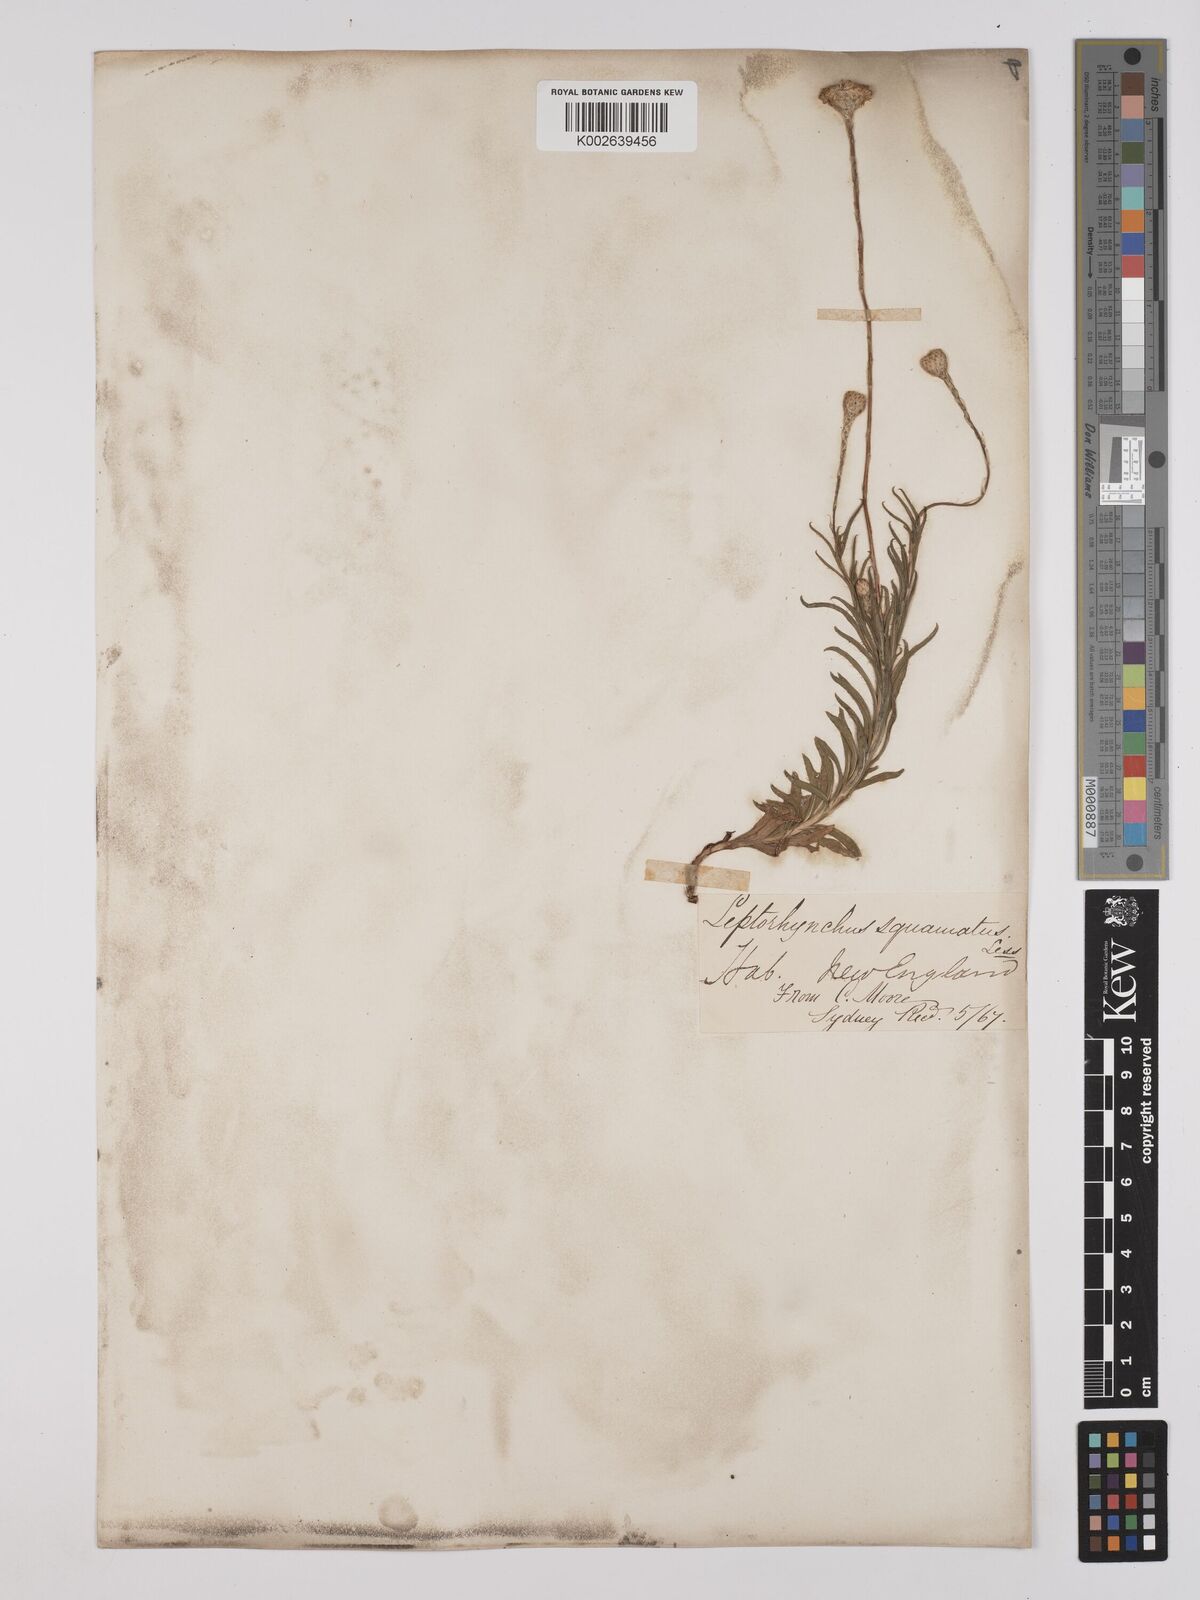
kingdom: Plantae
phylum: Tracheophyta
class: Magnoliopsida
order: Asterales
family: Asteraceae
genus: Leptorhynchos
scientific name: Leptorhynchos squamatus
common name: Scaly-buttons
